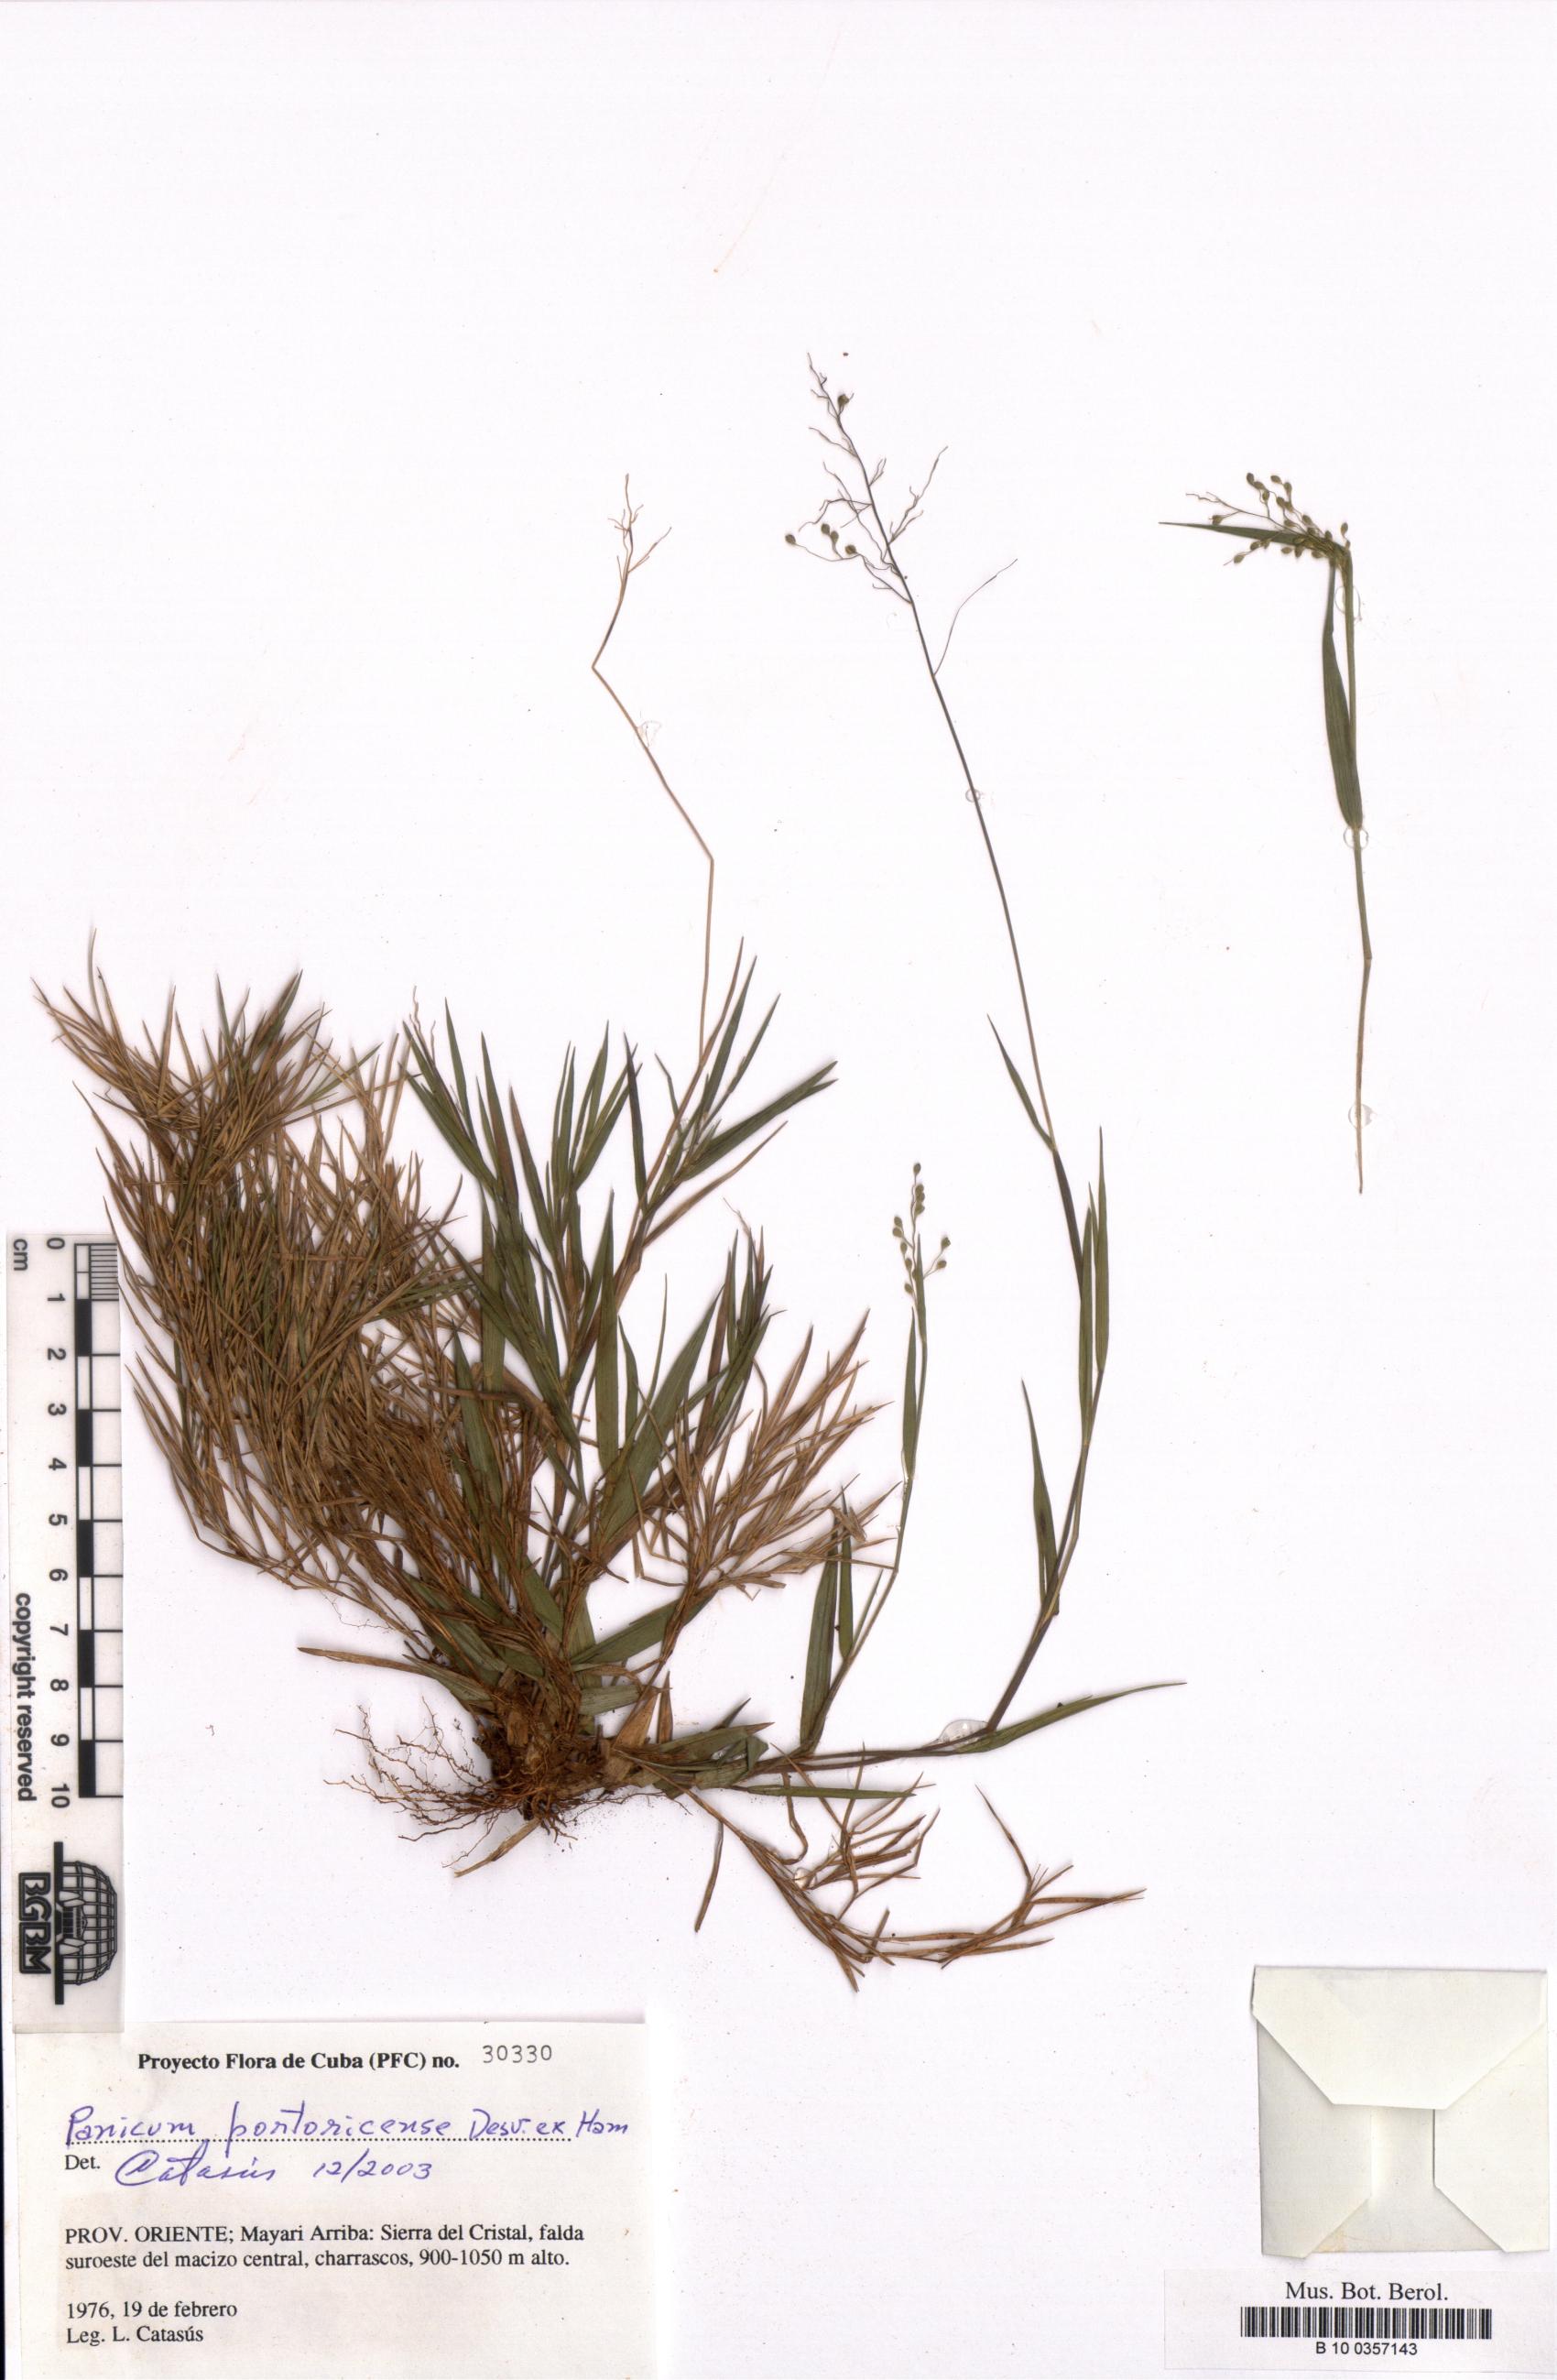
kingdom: Plantae
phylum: Tracheophyta
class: Liliopsida
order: Poales
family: Poaceae
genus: Dichanthelium
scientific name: Dichanthelium portoricense
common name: American panicgrass
